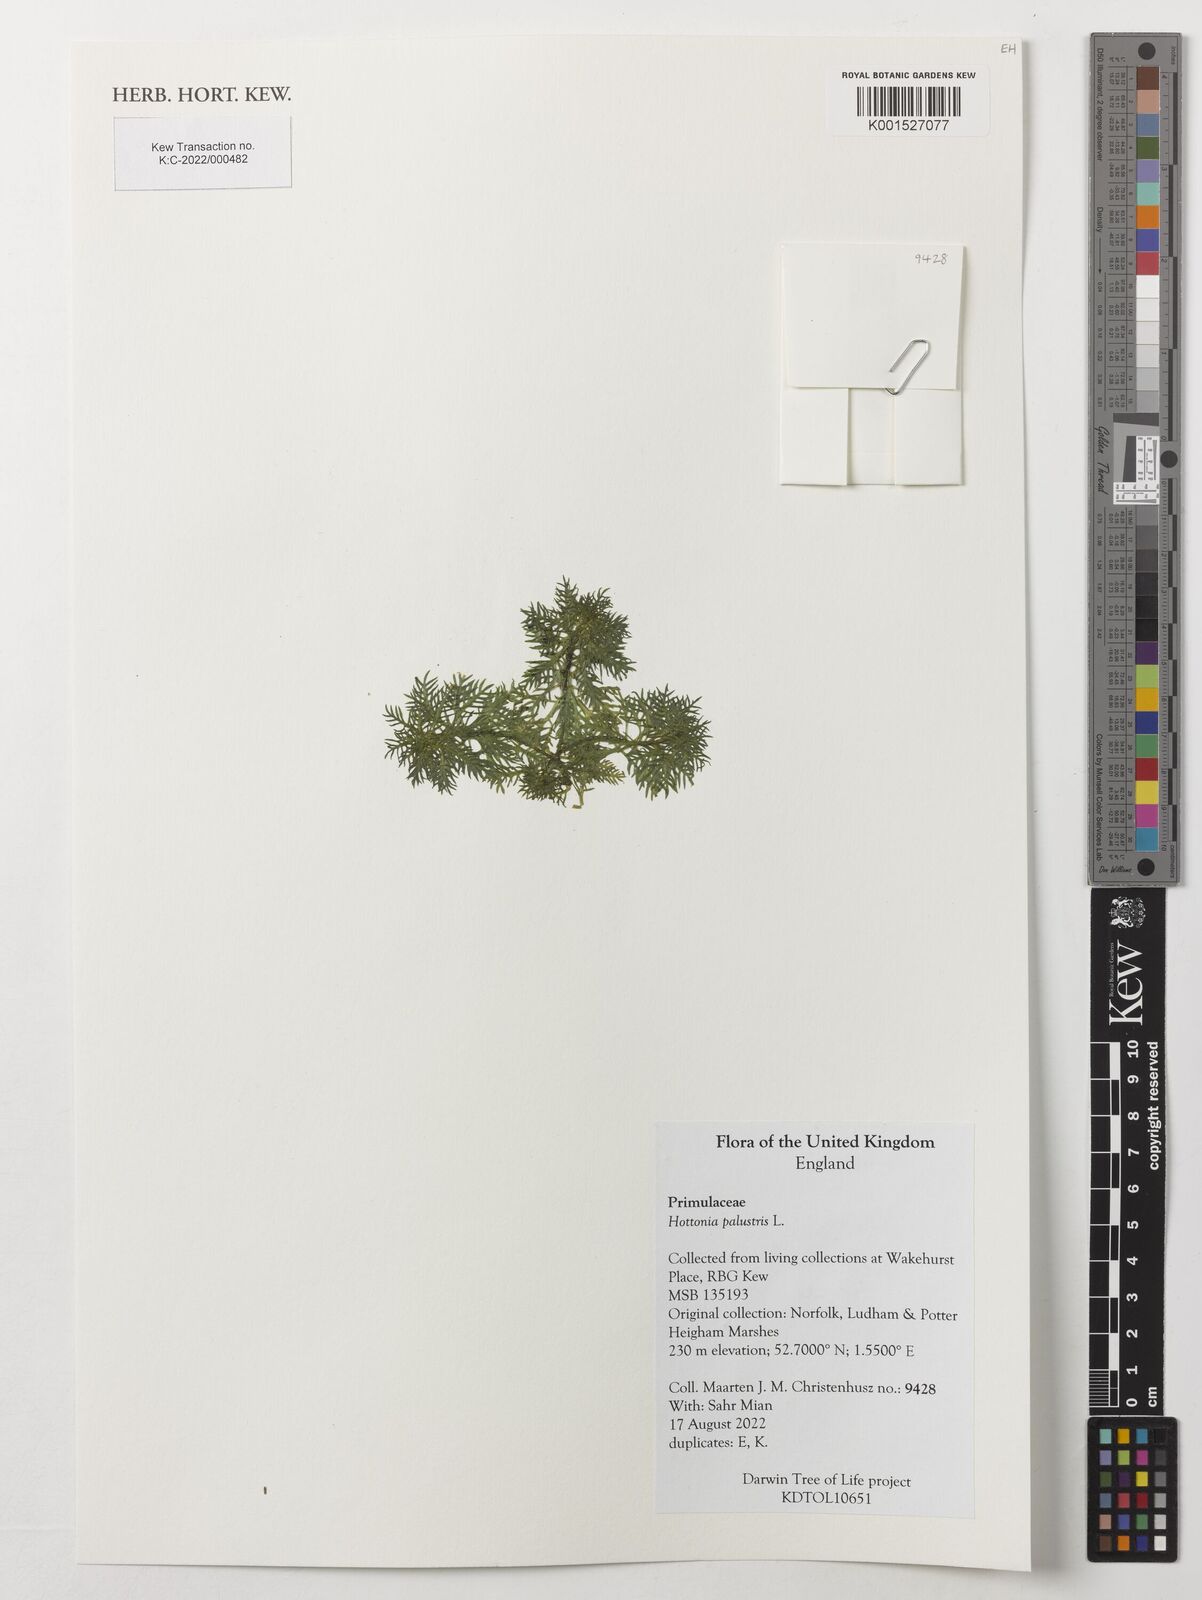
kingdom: Plantae
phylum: Tracheophyta
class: Magnoliopsida
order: Ericales
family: Primulaceae
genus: Hottonia
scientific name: Hottonia palustris
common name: Water-violet
